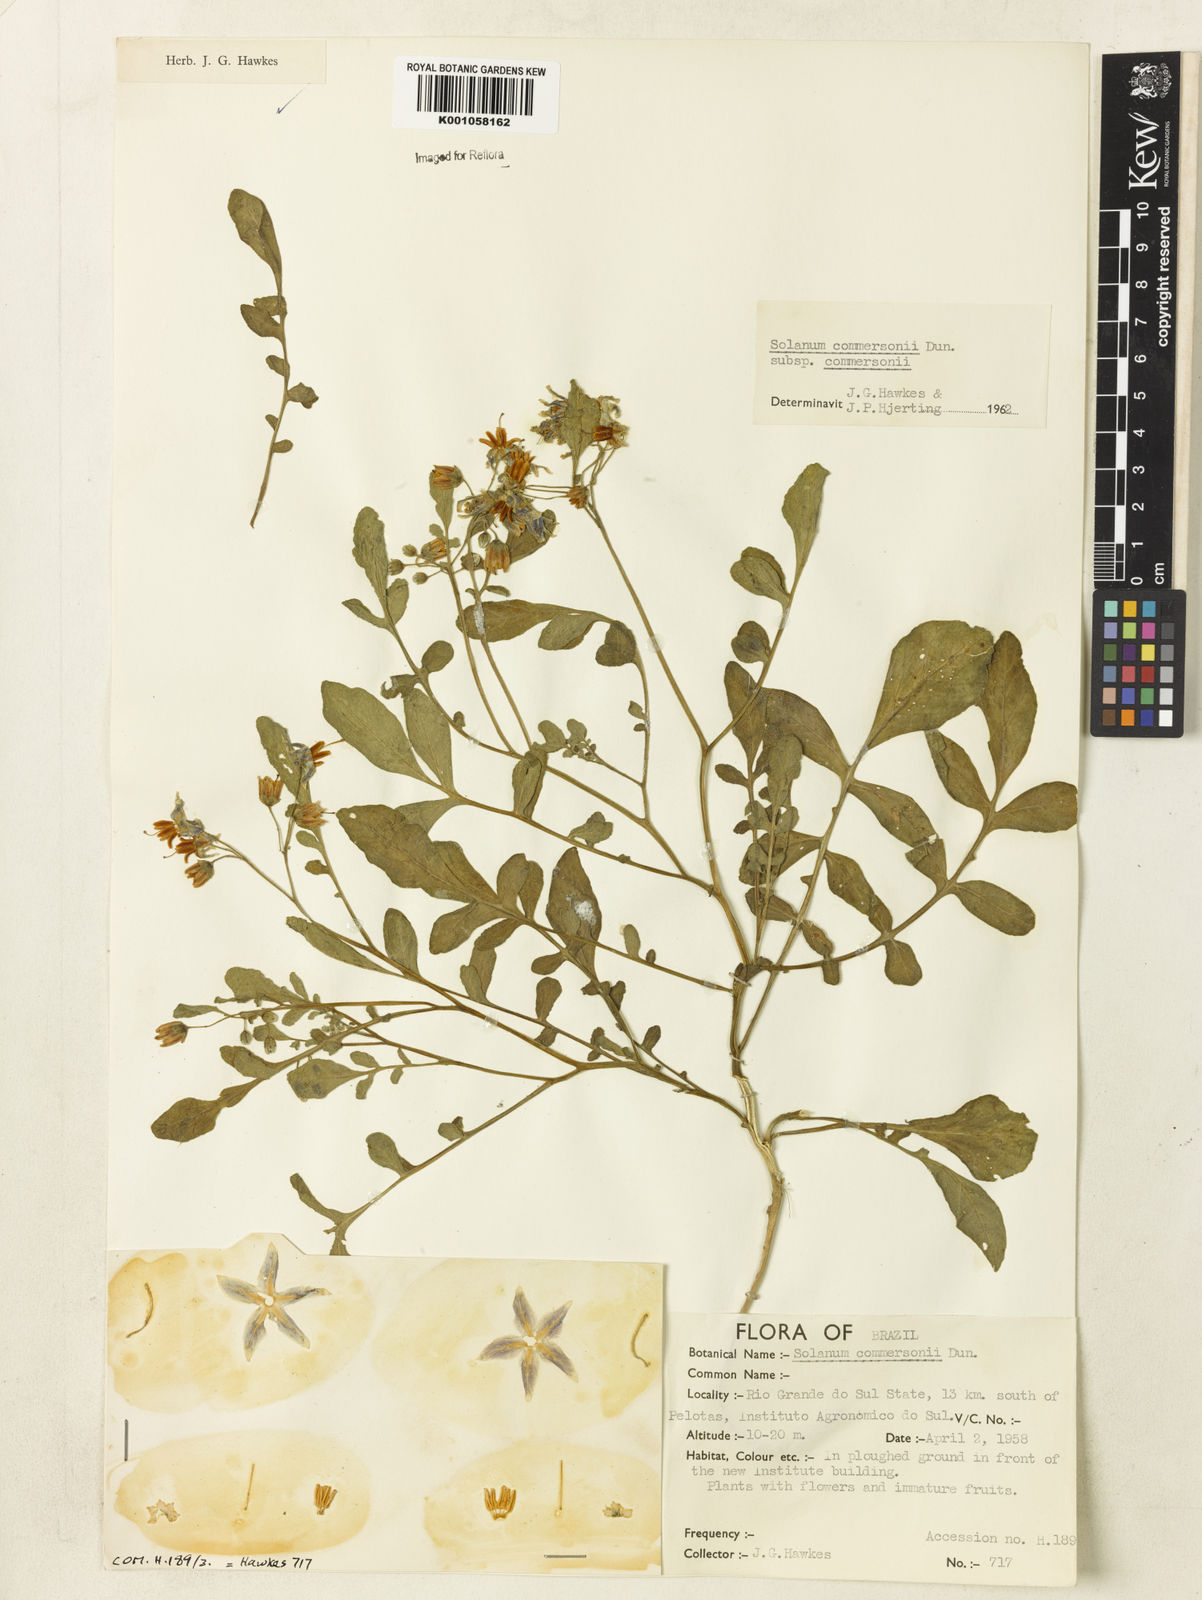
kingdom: Plantae
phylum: Tracheophyta
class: Magnoliopsida
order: Solanales
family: Solanaceae
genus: Solanum
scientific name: Solanum
